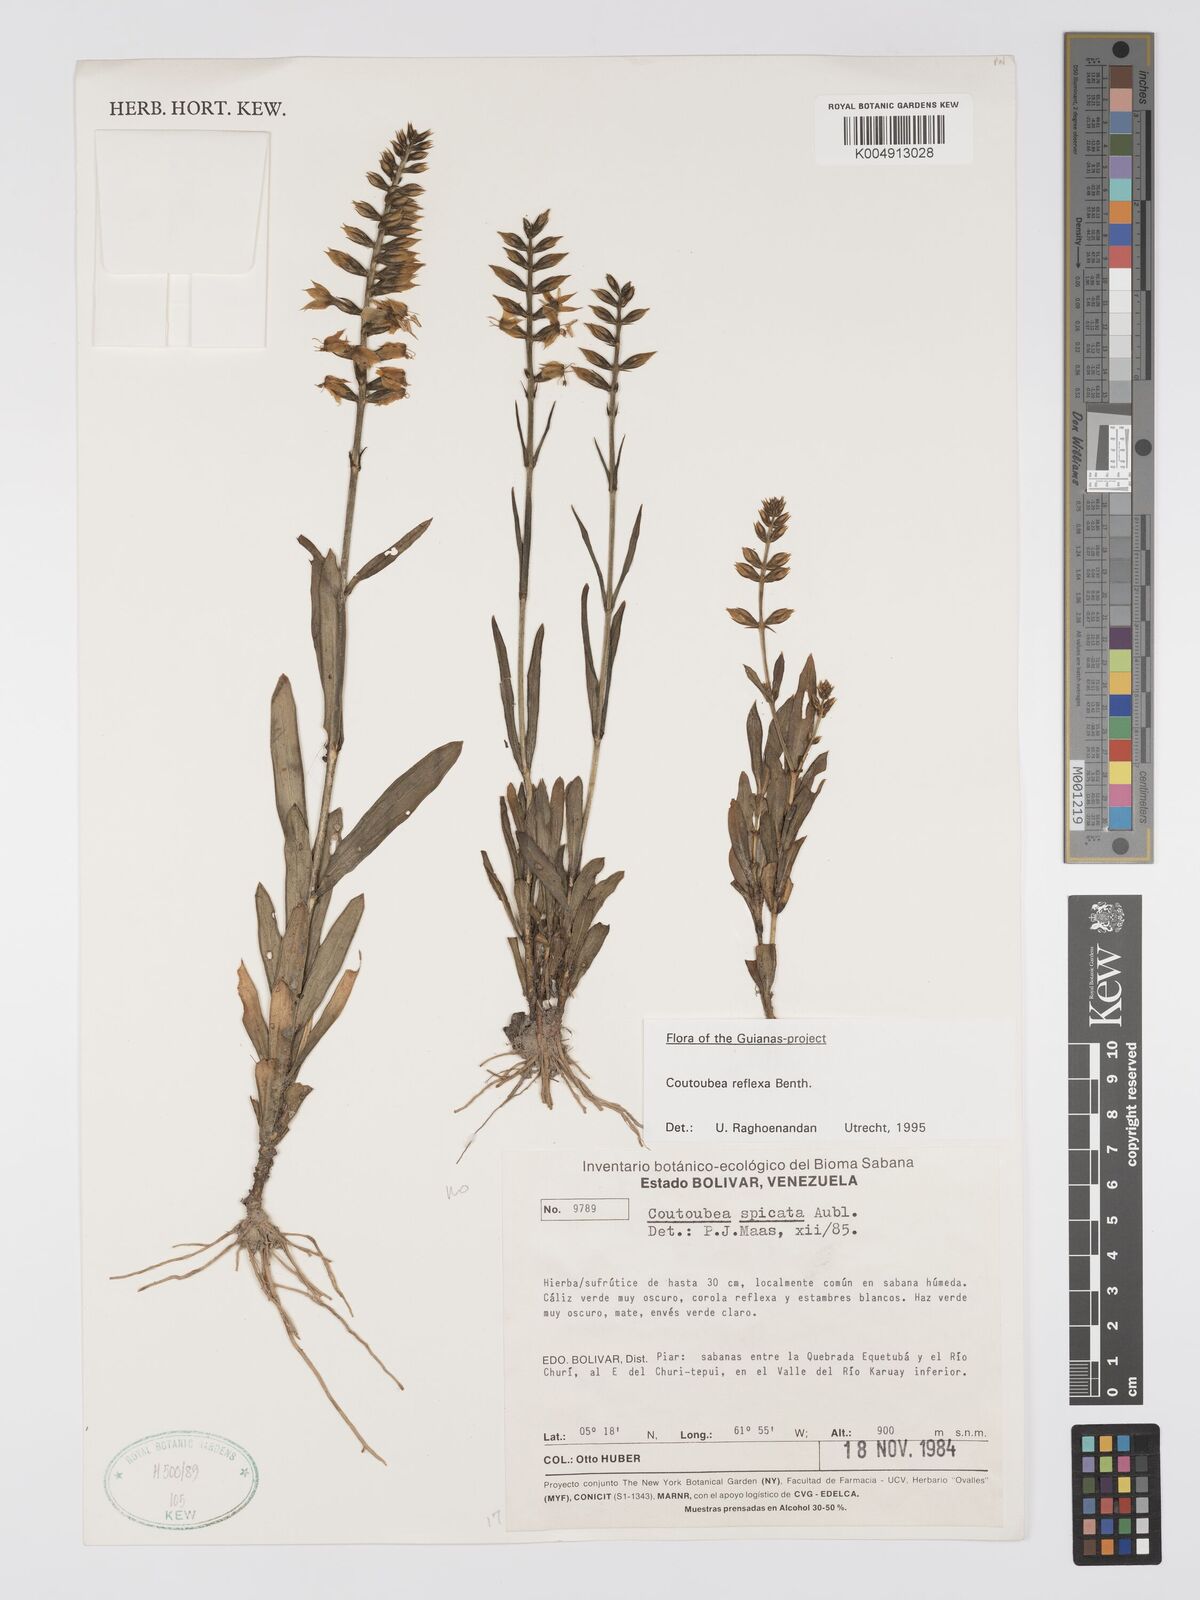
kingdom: Plantae
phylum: Tracheophyta
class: Magnoliopsida
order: Gentianales
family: Gentianaceae
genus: Coutoubea
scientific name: Coutoubea reflexa
